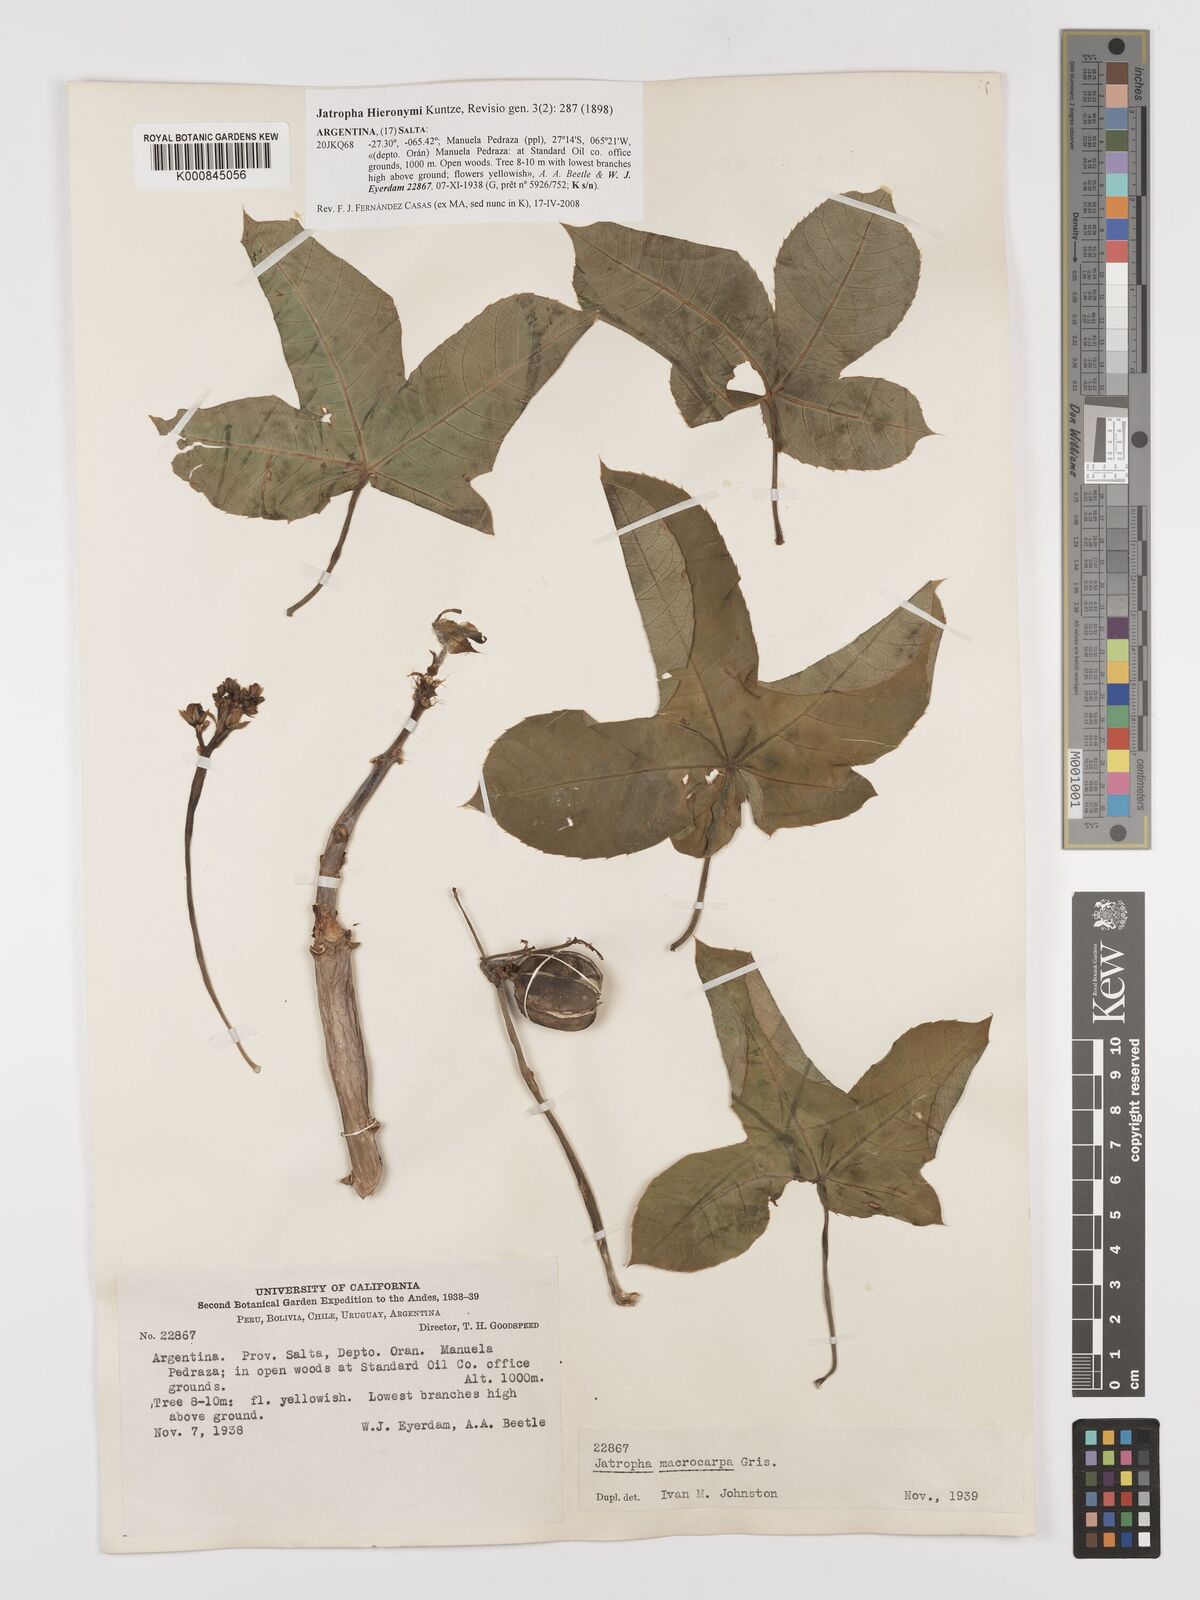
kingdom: Plantae
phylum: Tracheophyta
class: Magnoliopsida
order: Malpighiales
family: Euphorbiaceae
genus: Jatropha
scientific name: Jatropha hieronymi
